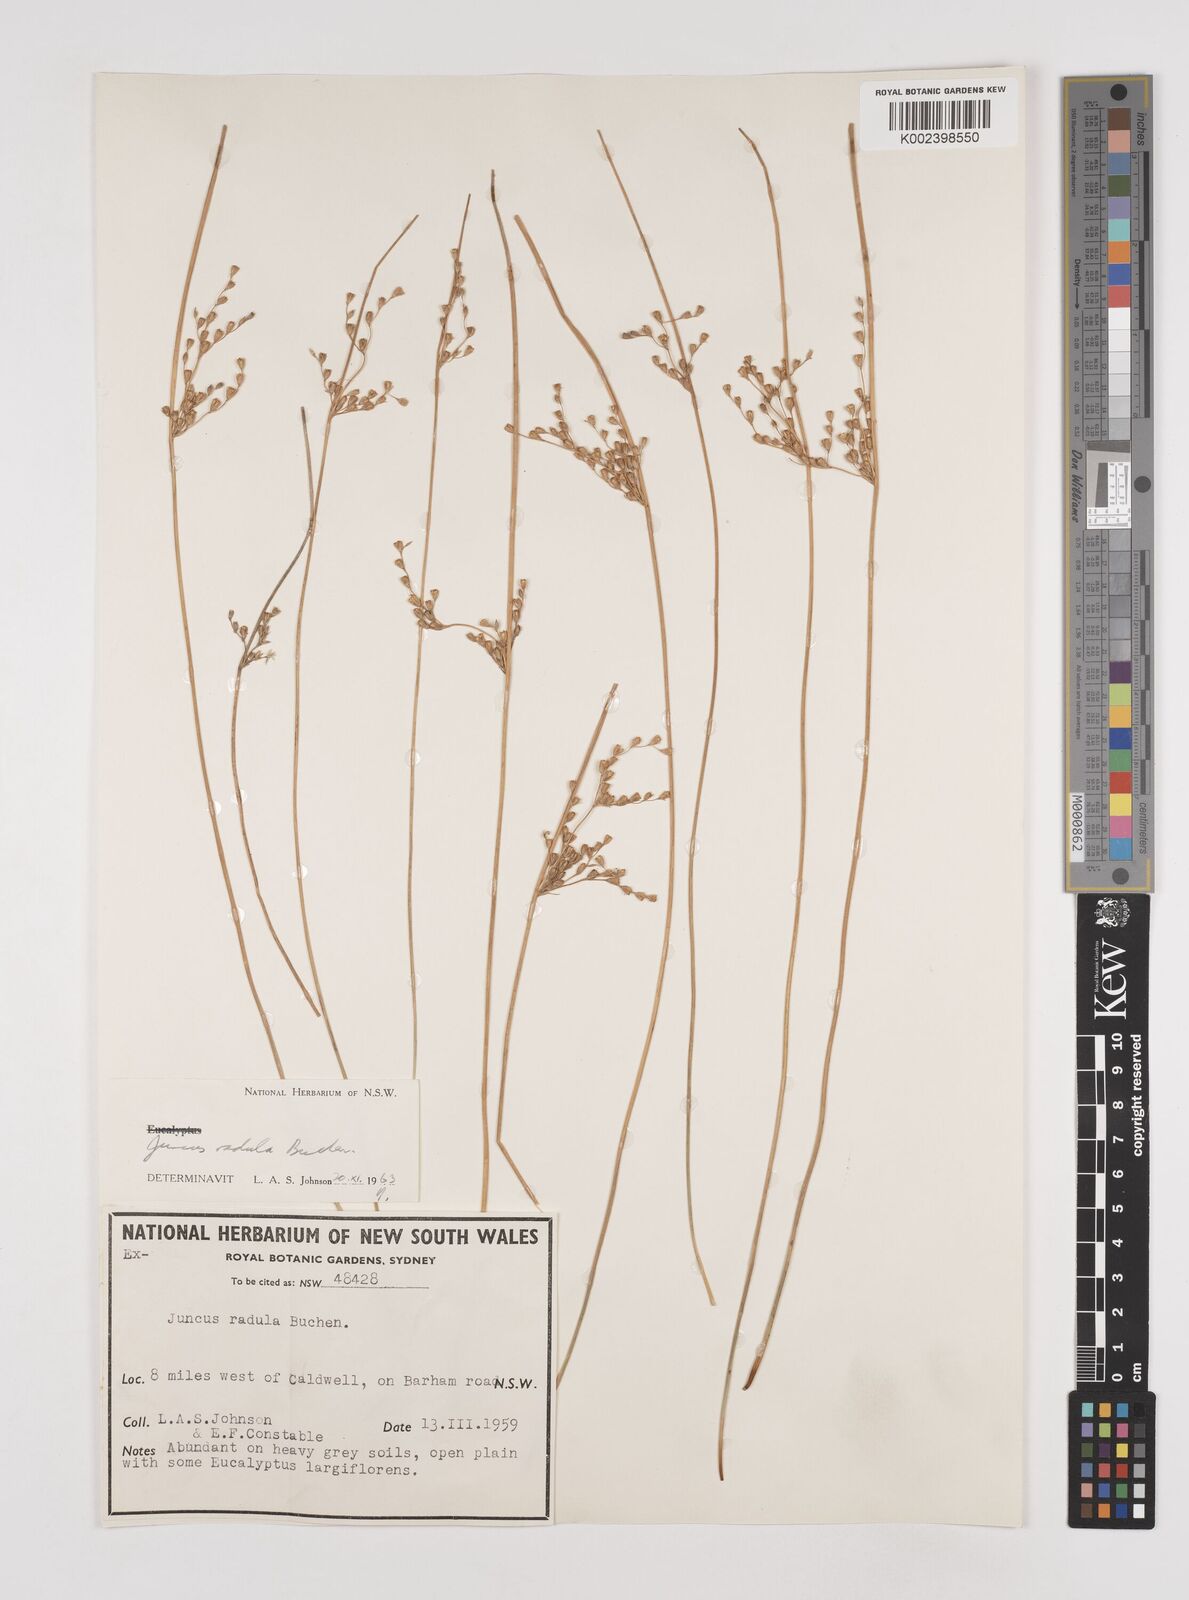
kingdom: Plantae
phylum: Tracheophyta
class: Liliopsida
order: Poales
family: Juncaceae
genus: Juncus
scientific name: Juncus radula
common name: Hoary rush
